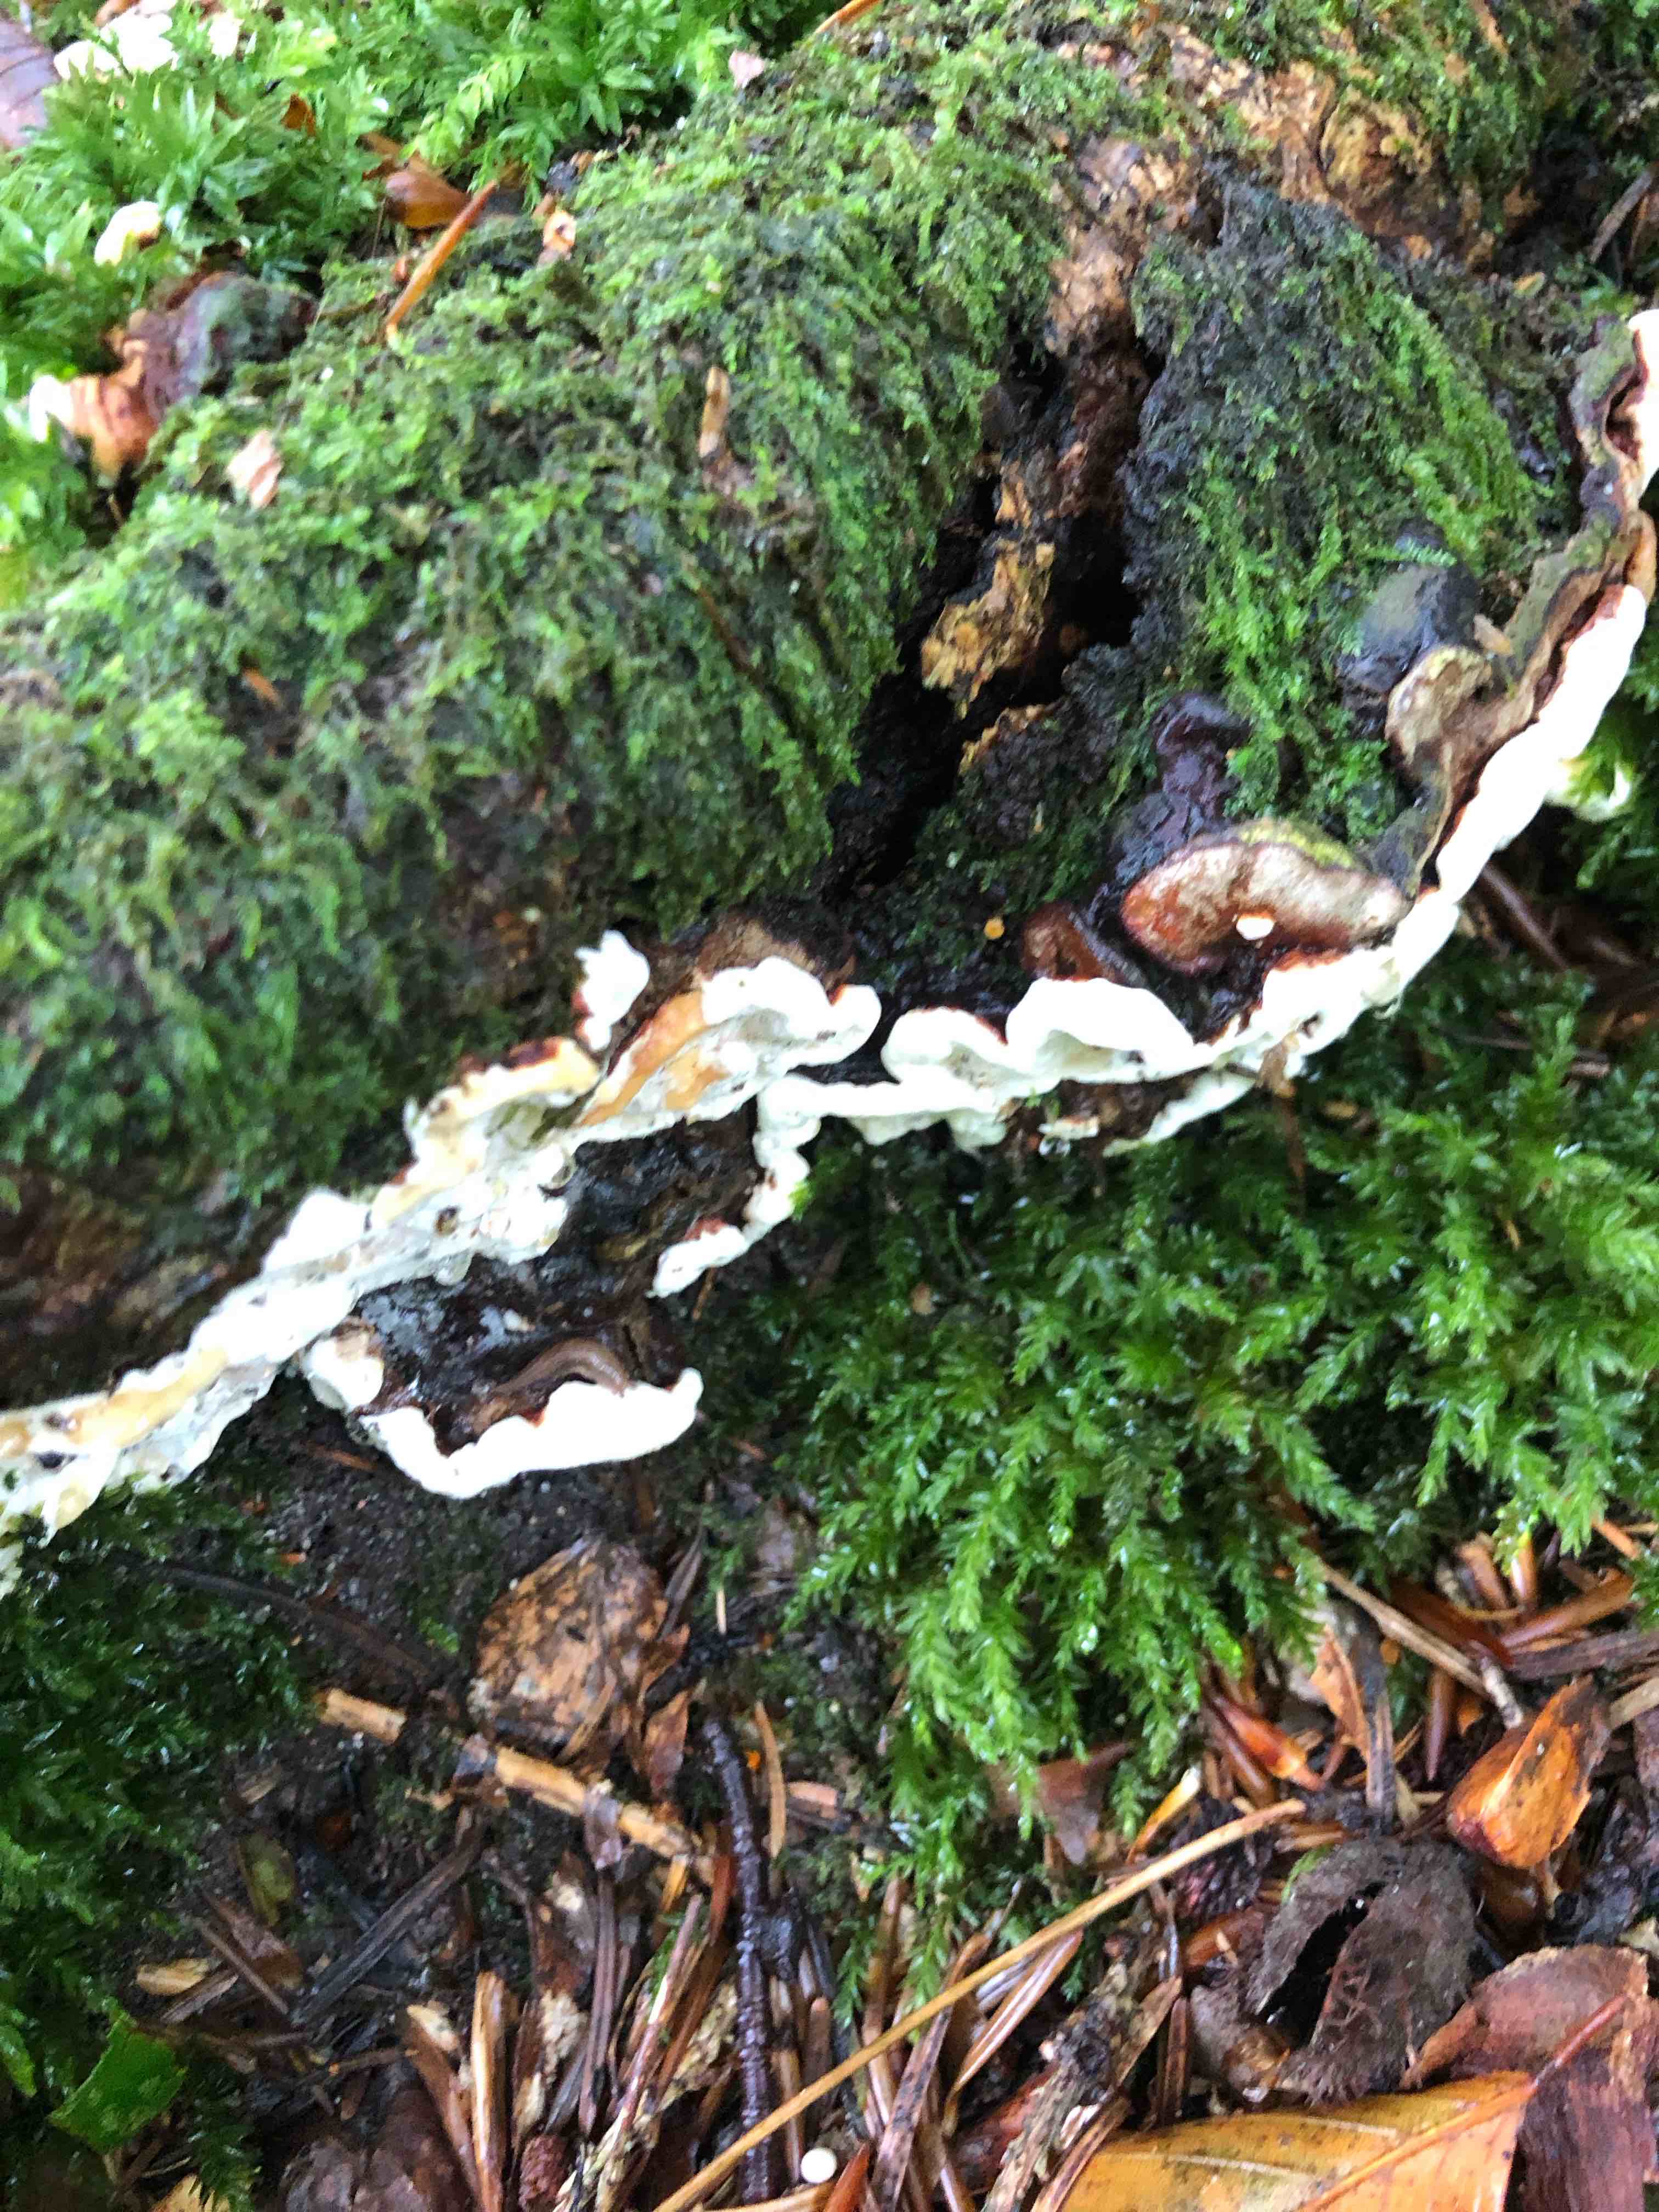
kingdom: Fungi
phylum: Basidiomycota
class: Agaricomycetes
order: Russulales
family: Bondarzewiaceae
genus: Heterobasidion
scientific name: Heterobasidion annosum
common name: almindelig rodfordærver
